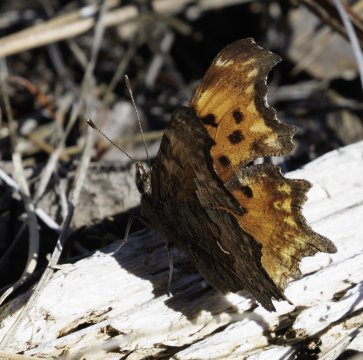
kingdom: Animalia
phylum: Arthropoda
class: Insecta
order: Lepidoptera
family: Nymphalidae
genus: Polygonia
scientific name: Polygonia gracilis
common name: Hoary Comma
